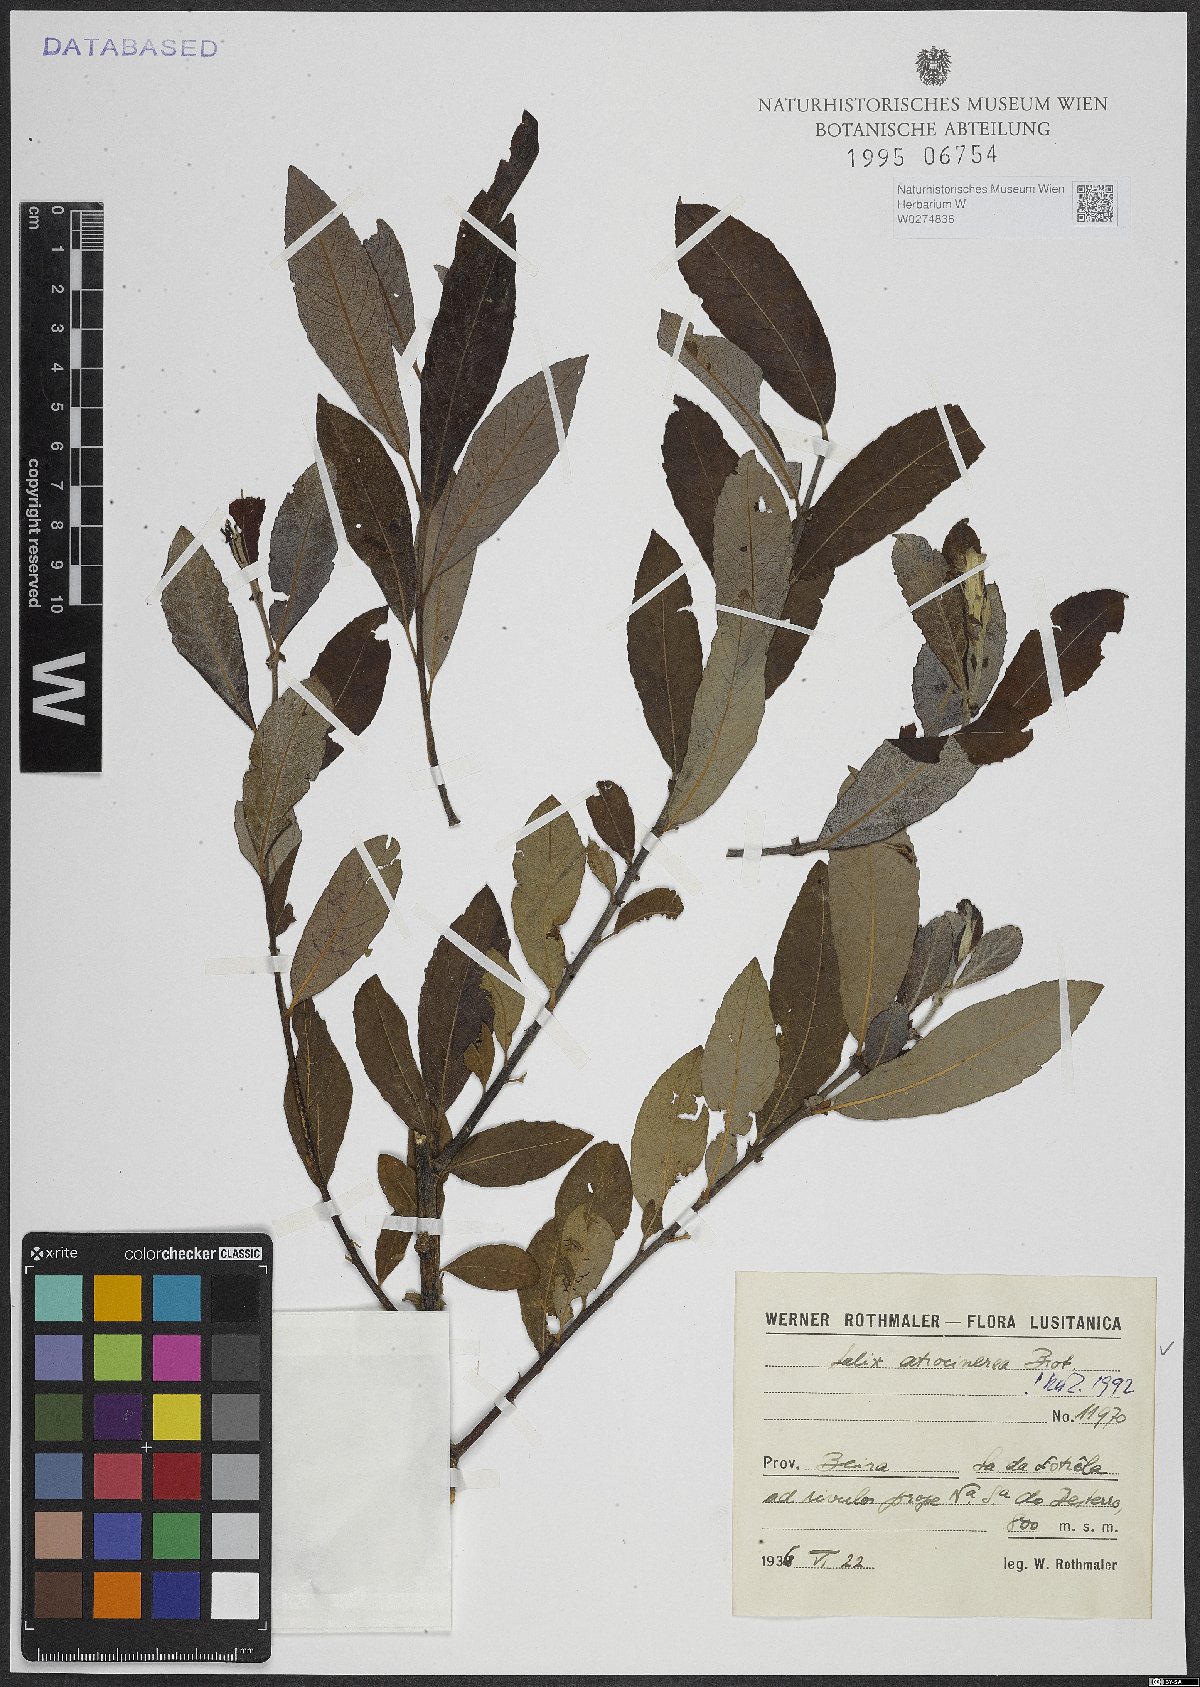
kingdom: Plantae
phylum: Tracheophyta
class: Magnoliopsida
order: Malpighiales
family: Salicaceae
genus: Salix
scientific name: Salix atrocinerea
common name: Rusty willow
